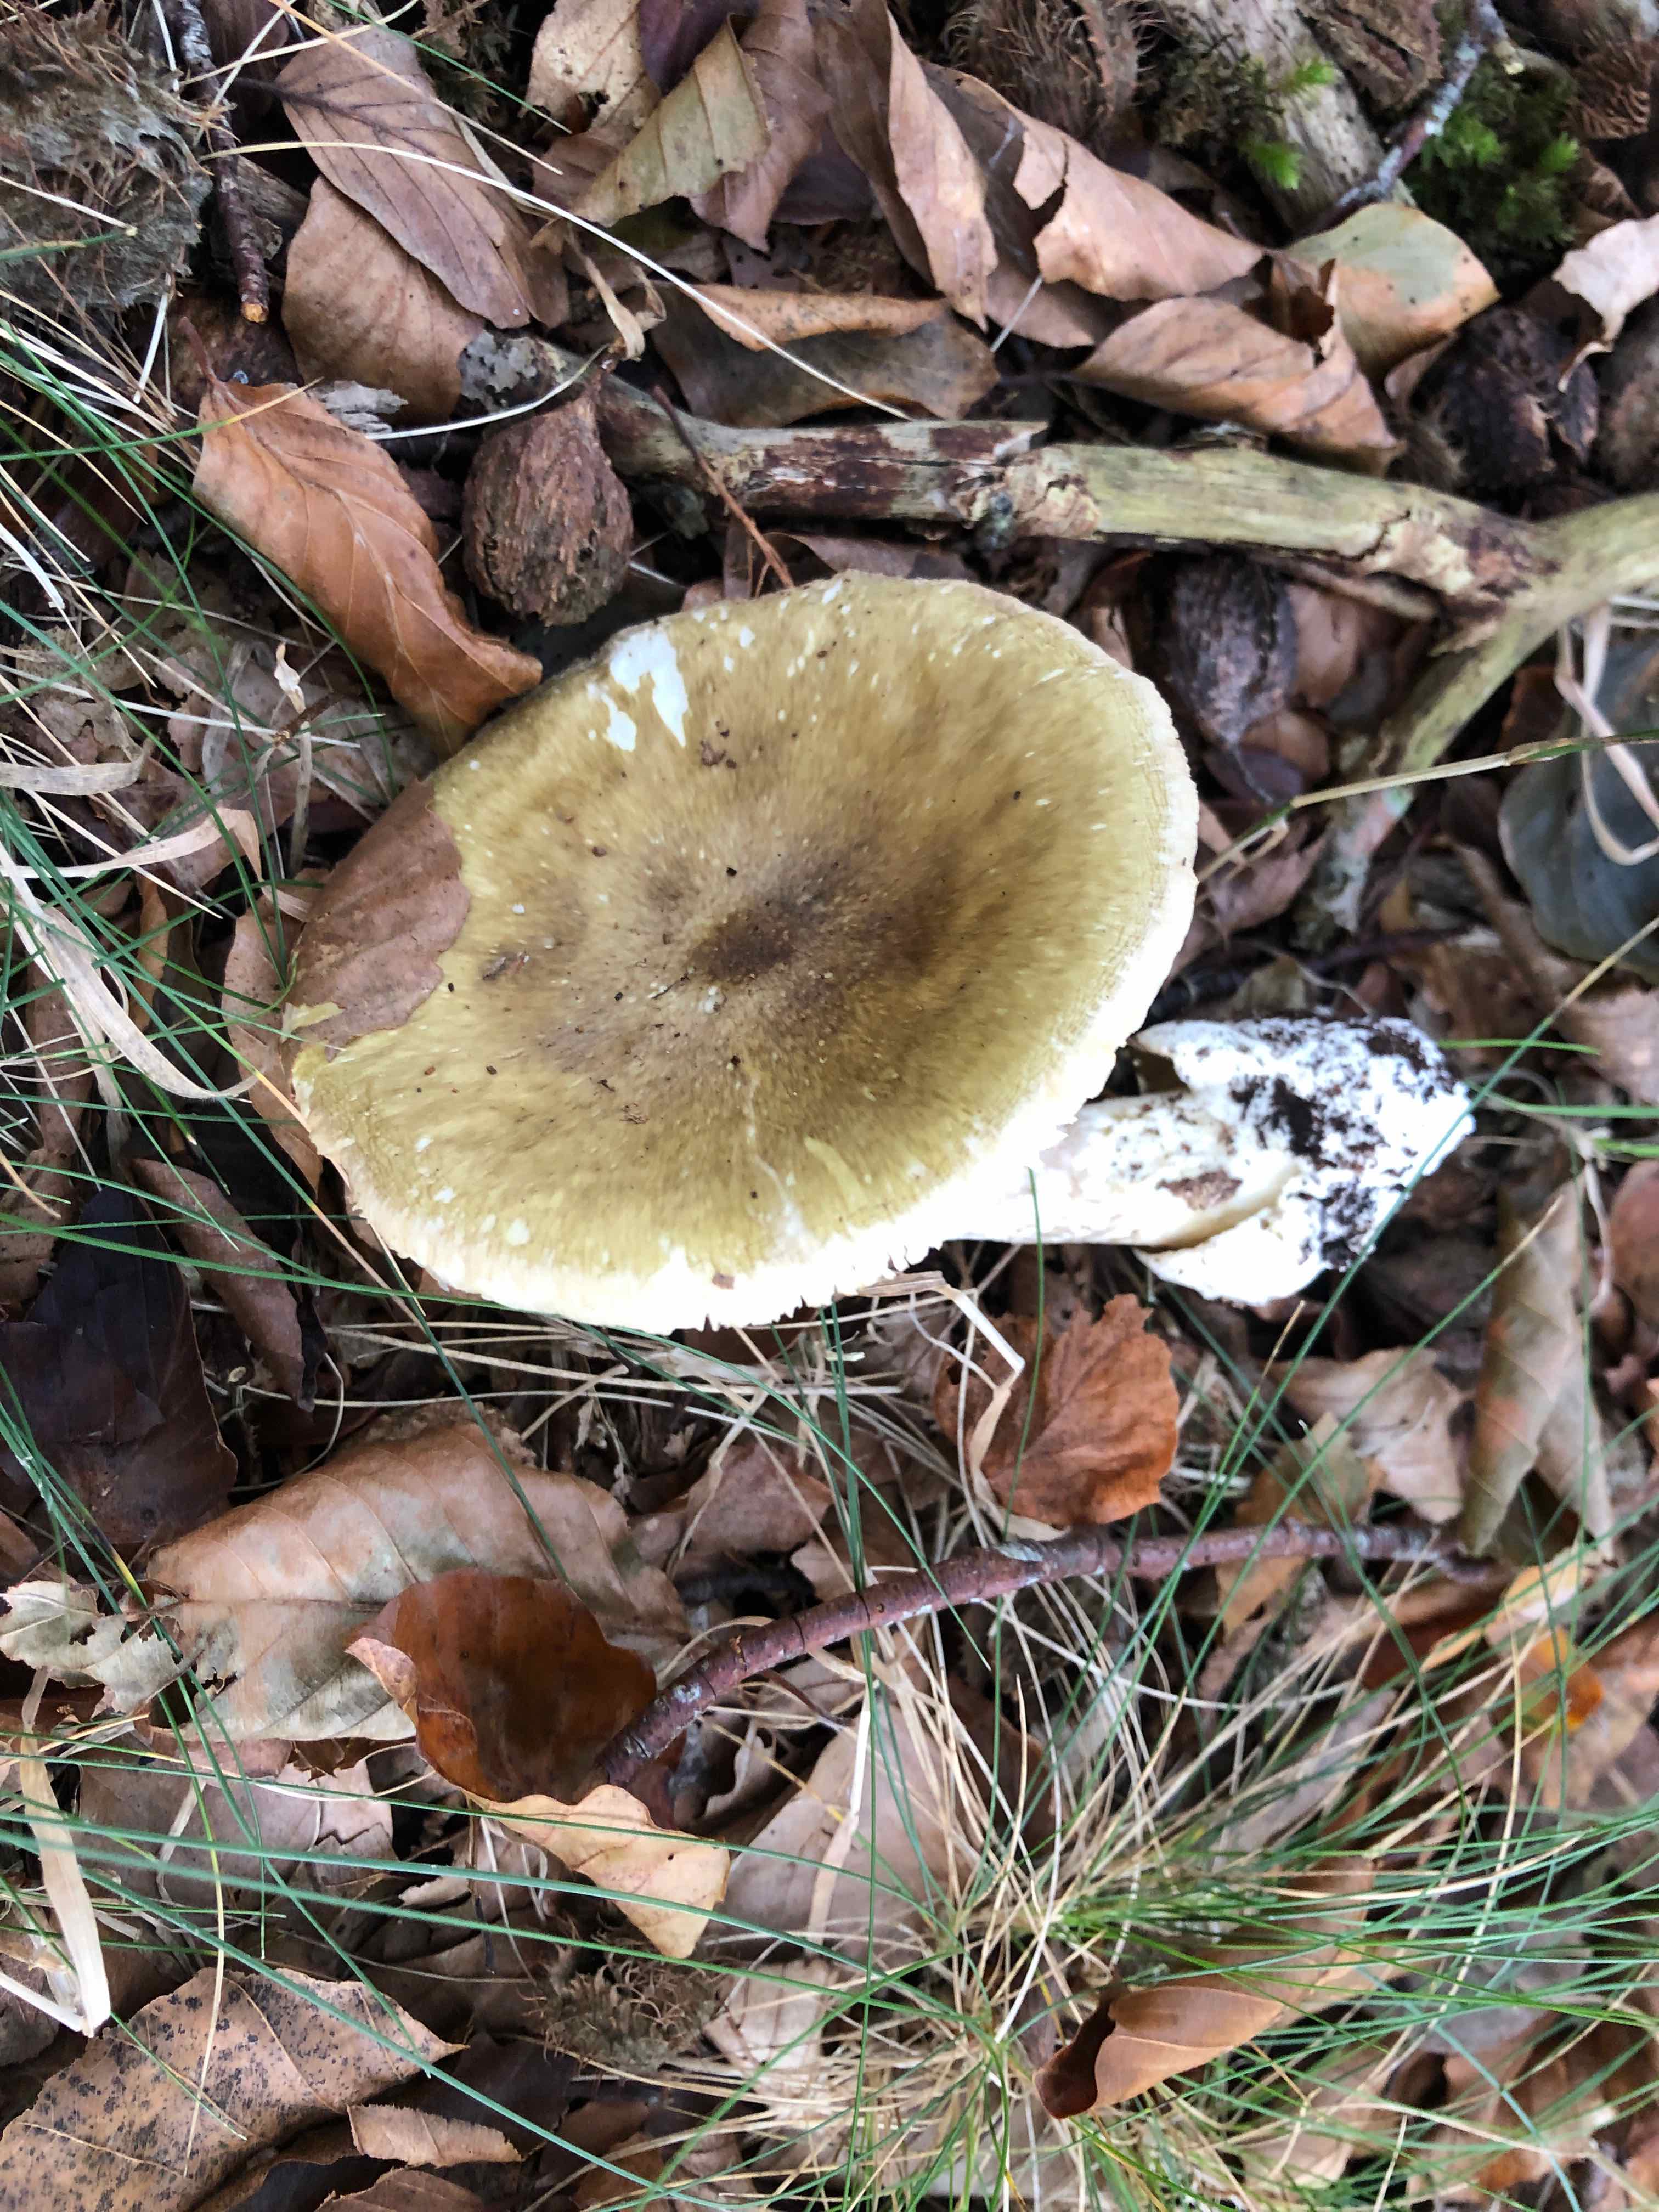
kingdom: Fungi
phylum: Basidiomycota
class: Agaricomycetes
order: Agaricales
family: Amanitaceae
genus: Amanita
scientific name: Amanita phalloides
